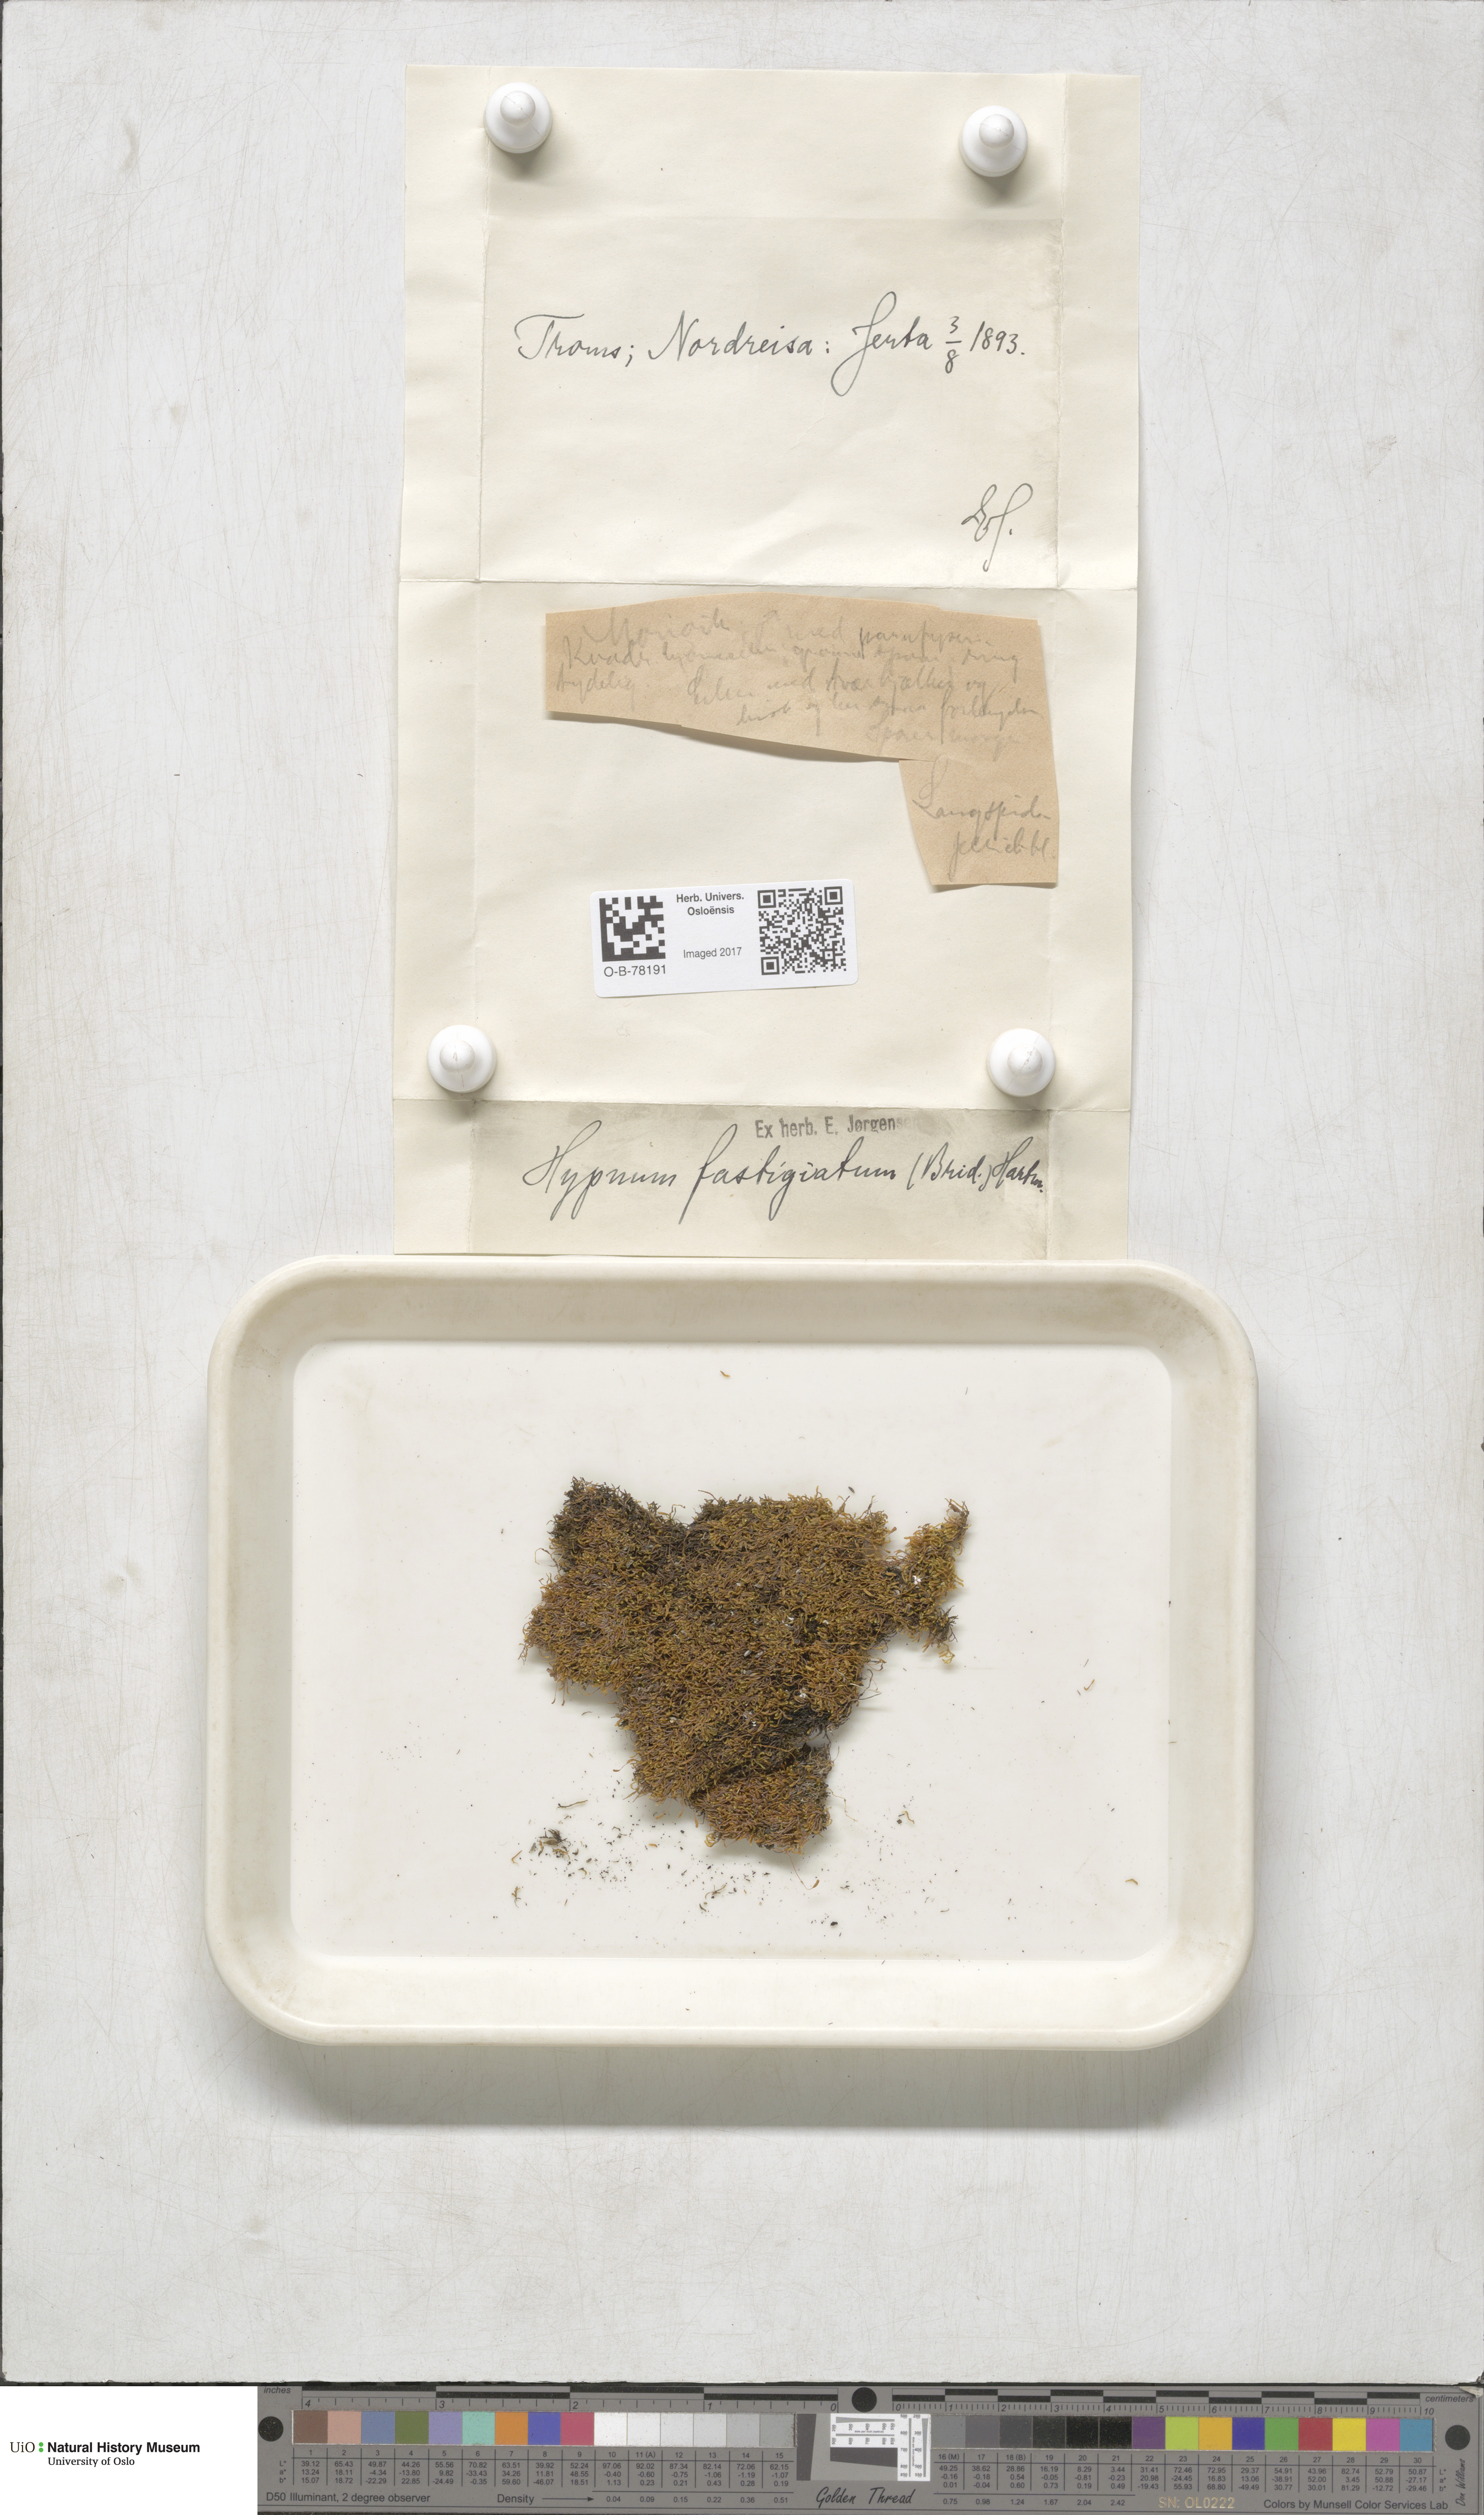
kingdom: Plantae
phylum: Bryophyta
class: Bryopsida
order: Hypnales
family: Amblystegiaceae
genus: Drepanium
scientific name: Drepanium fastigiatum
